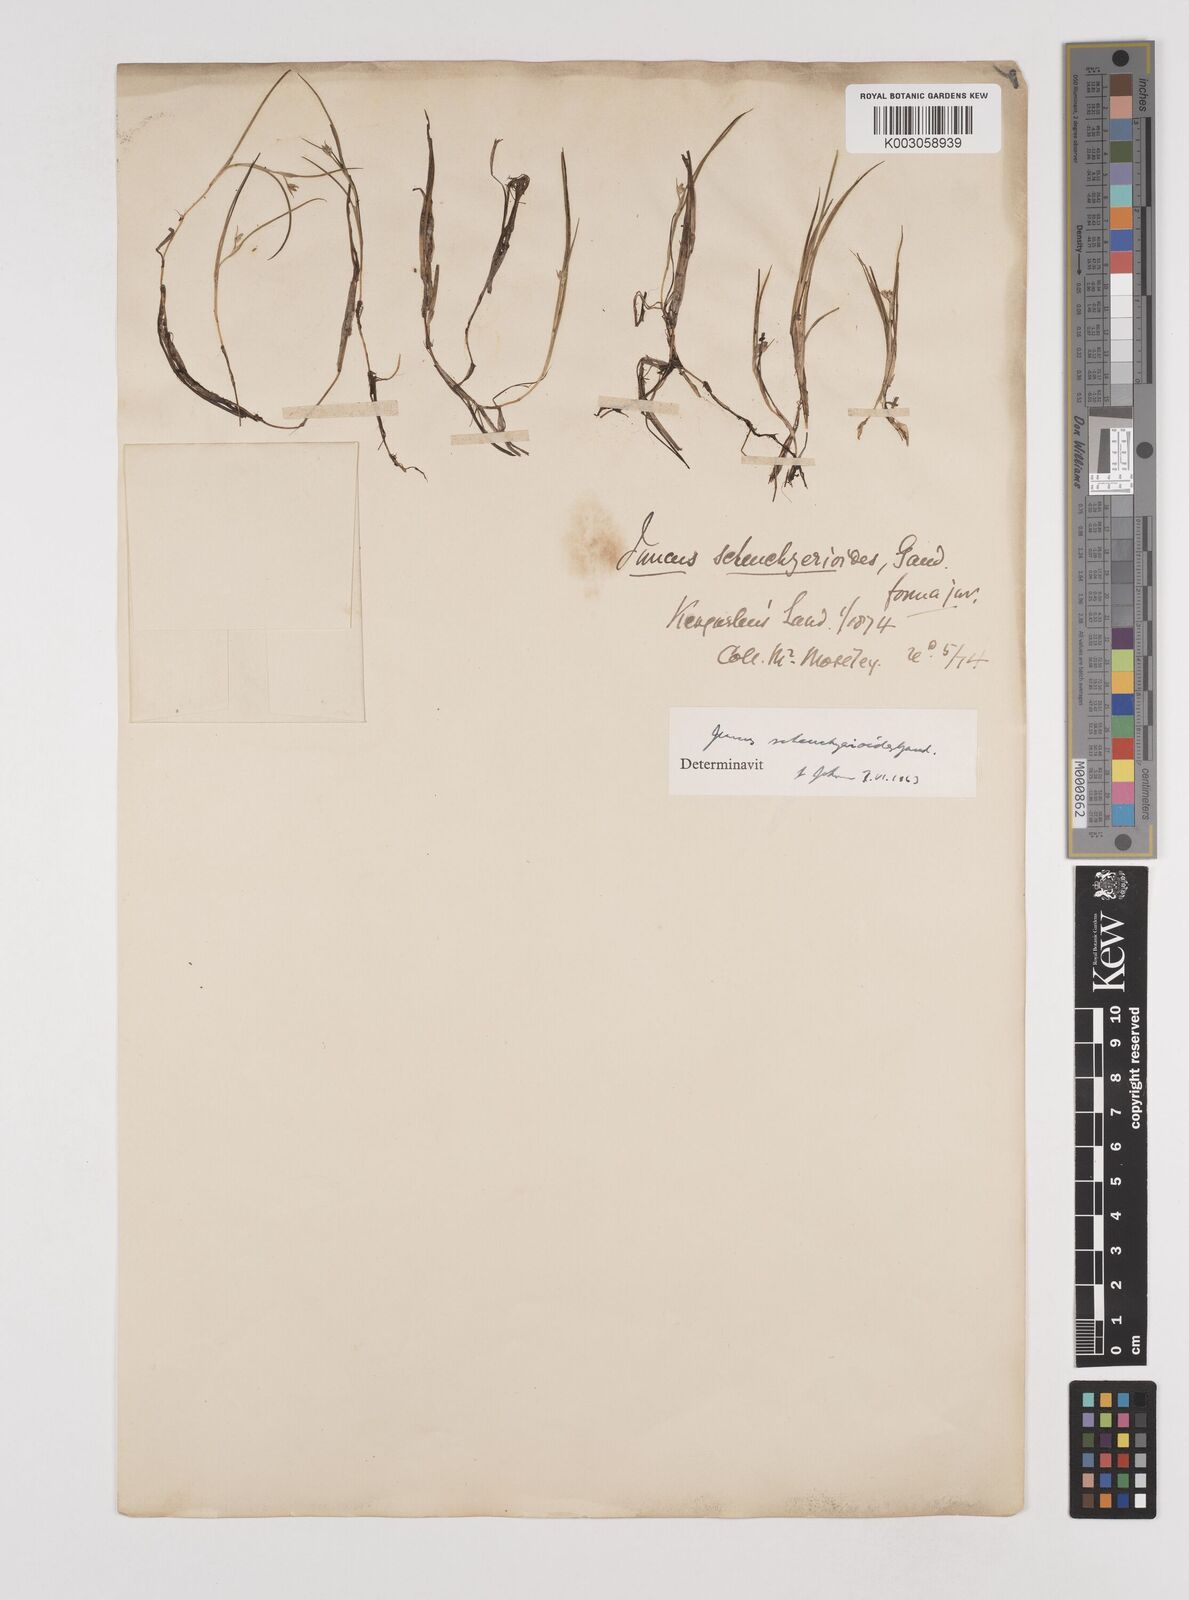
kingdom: Plantae
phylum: Tracheophyta
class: Liliopsida
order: Poales
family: Juncaceae
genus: Juncus
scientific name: Juncus scheuchzerioides
